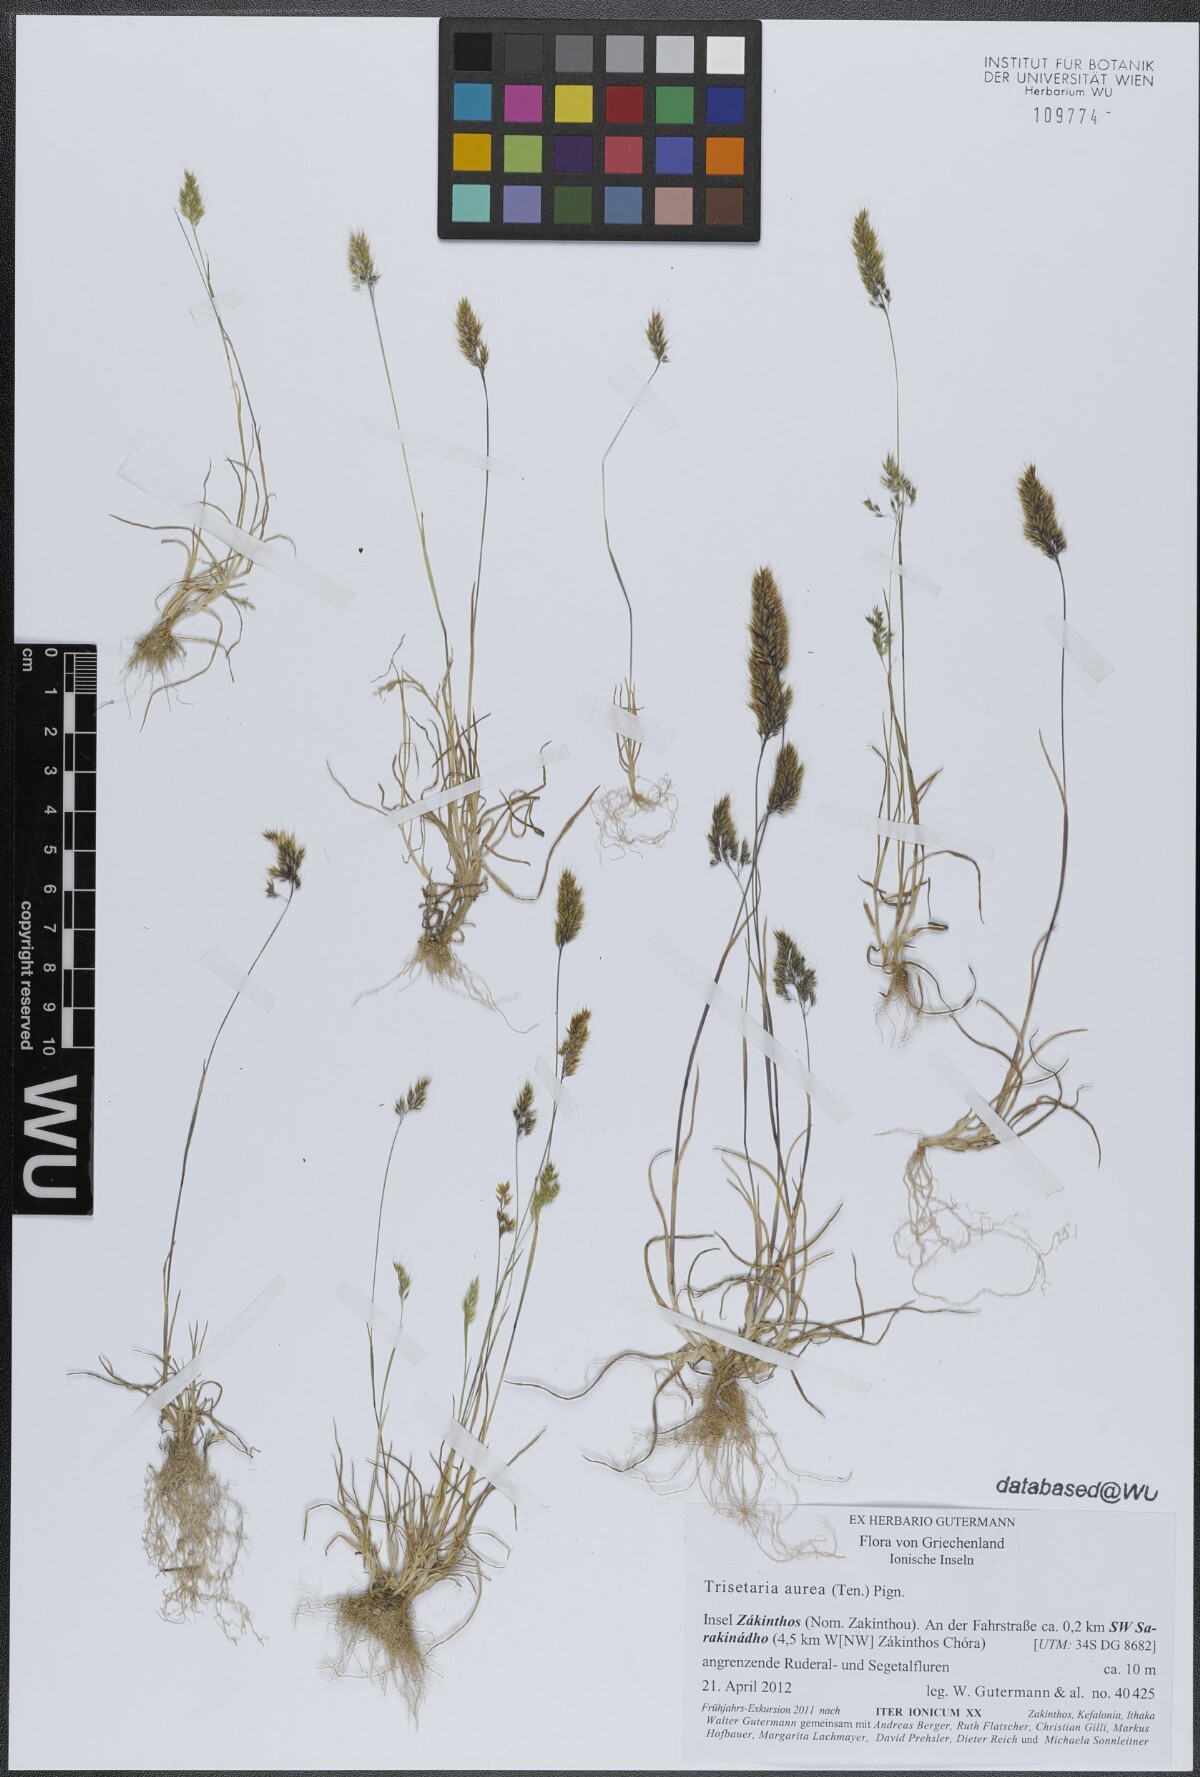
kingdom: Plantae
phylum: Tracheophyta
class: Liliopsida
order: Poales
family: Poaceae
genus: Trisetaria
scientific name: Trisetaria aurea
